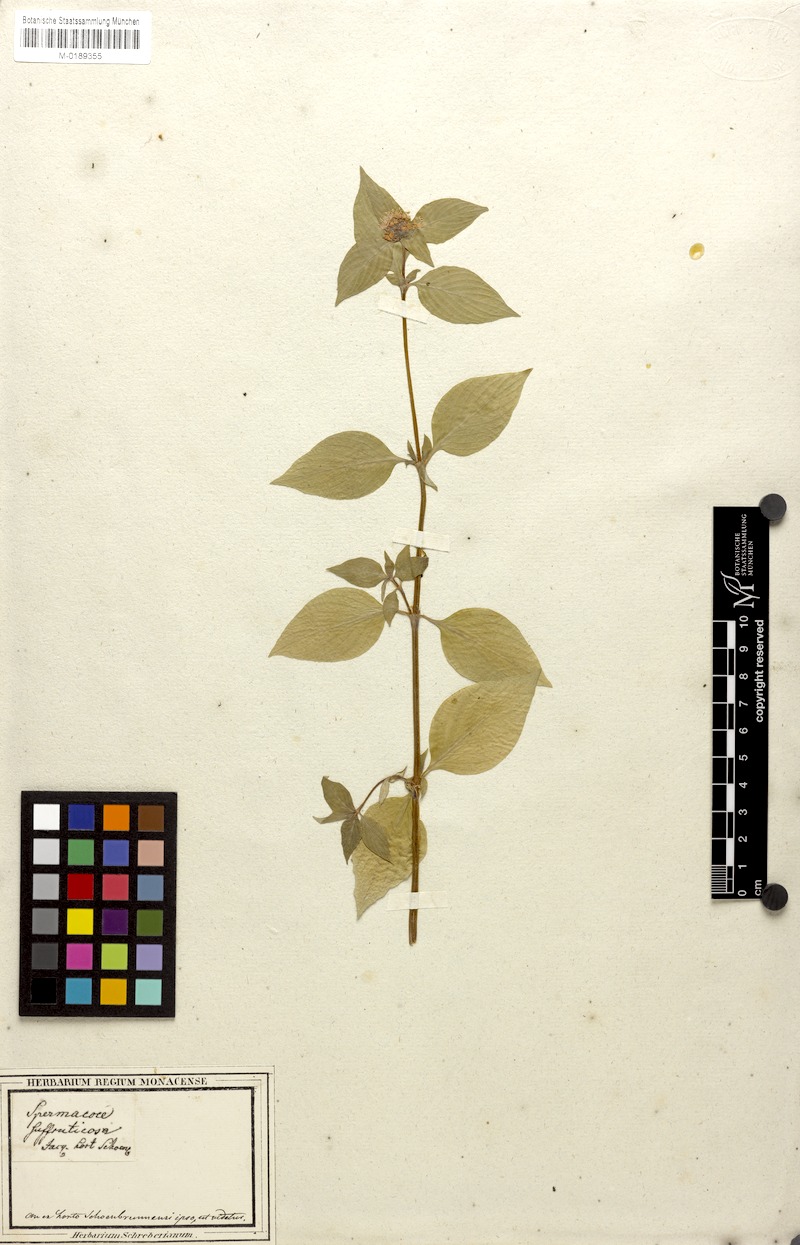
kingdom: Plantae
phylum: Tracheophyta
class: Magnoliopsida
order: Gentianales
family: Rubiaceae
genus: Spermacoce
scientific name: Spermacoce remota
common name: Woodland false buttonweed
